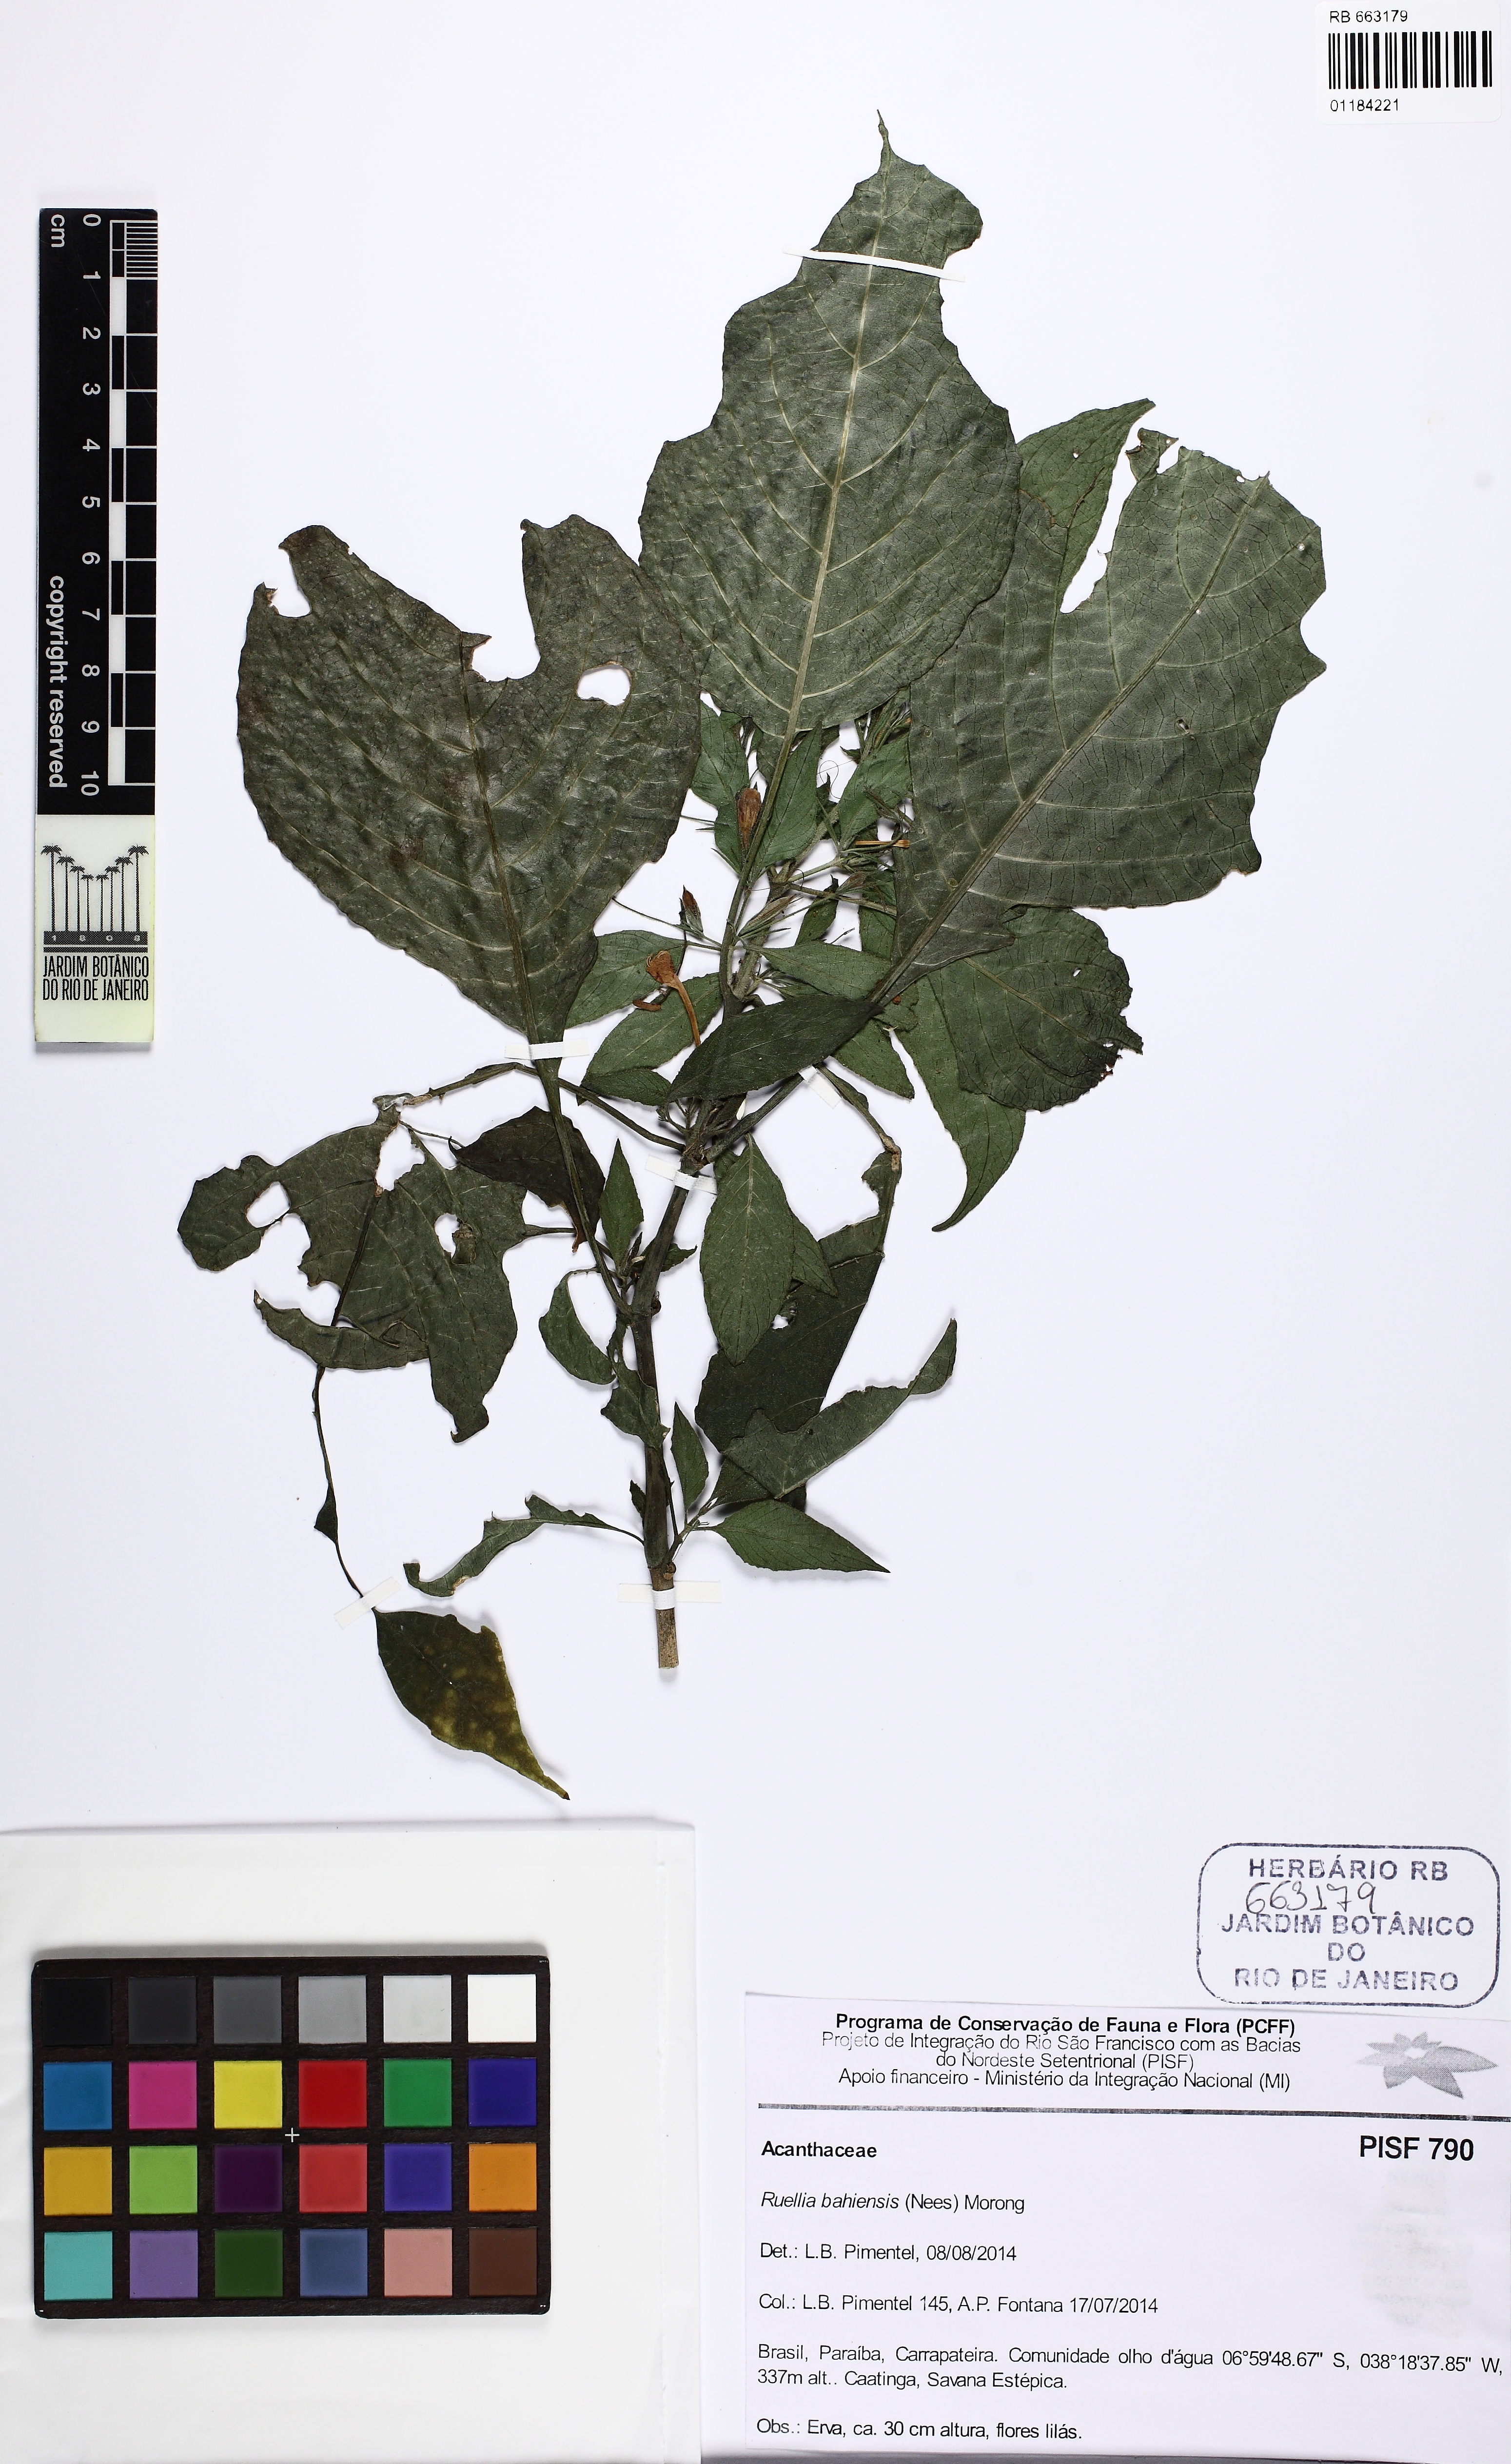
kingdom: Plantae
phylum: Tracheophyta
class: Magnoliopsida
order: Lamiales
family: Acanthaceae
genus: Ruellia
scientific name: Ruellia paniculata
